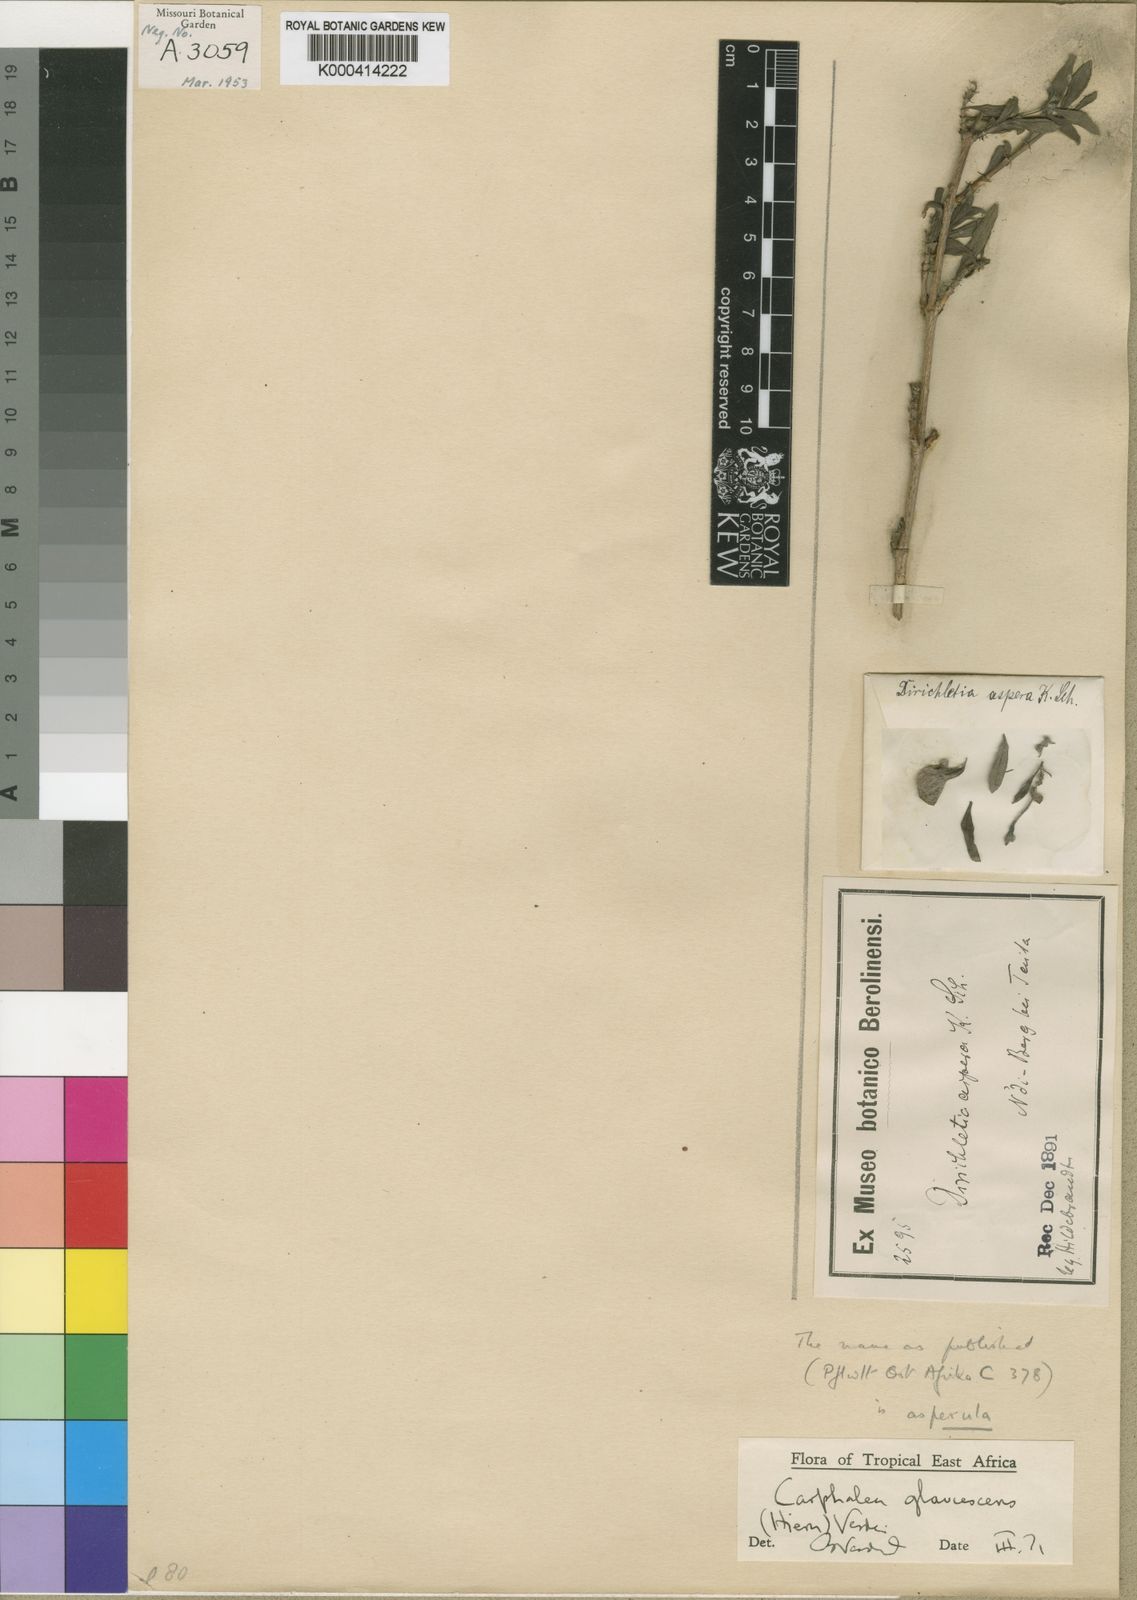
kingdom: Plantae
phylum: Tracheophyta
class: Magnoliopsida
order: Gentianales
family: Rubiaceae
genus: Dirichletia
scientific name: Dirichletia glaucescens
